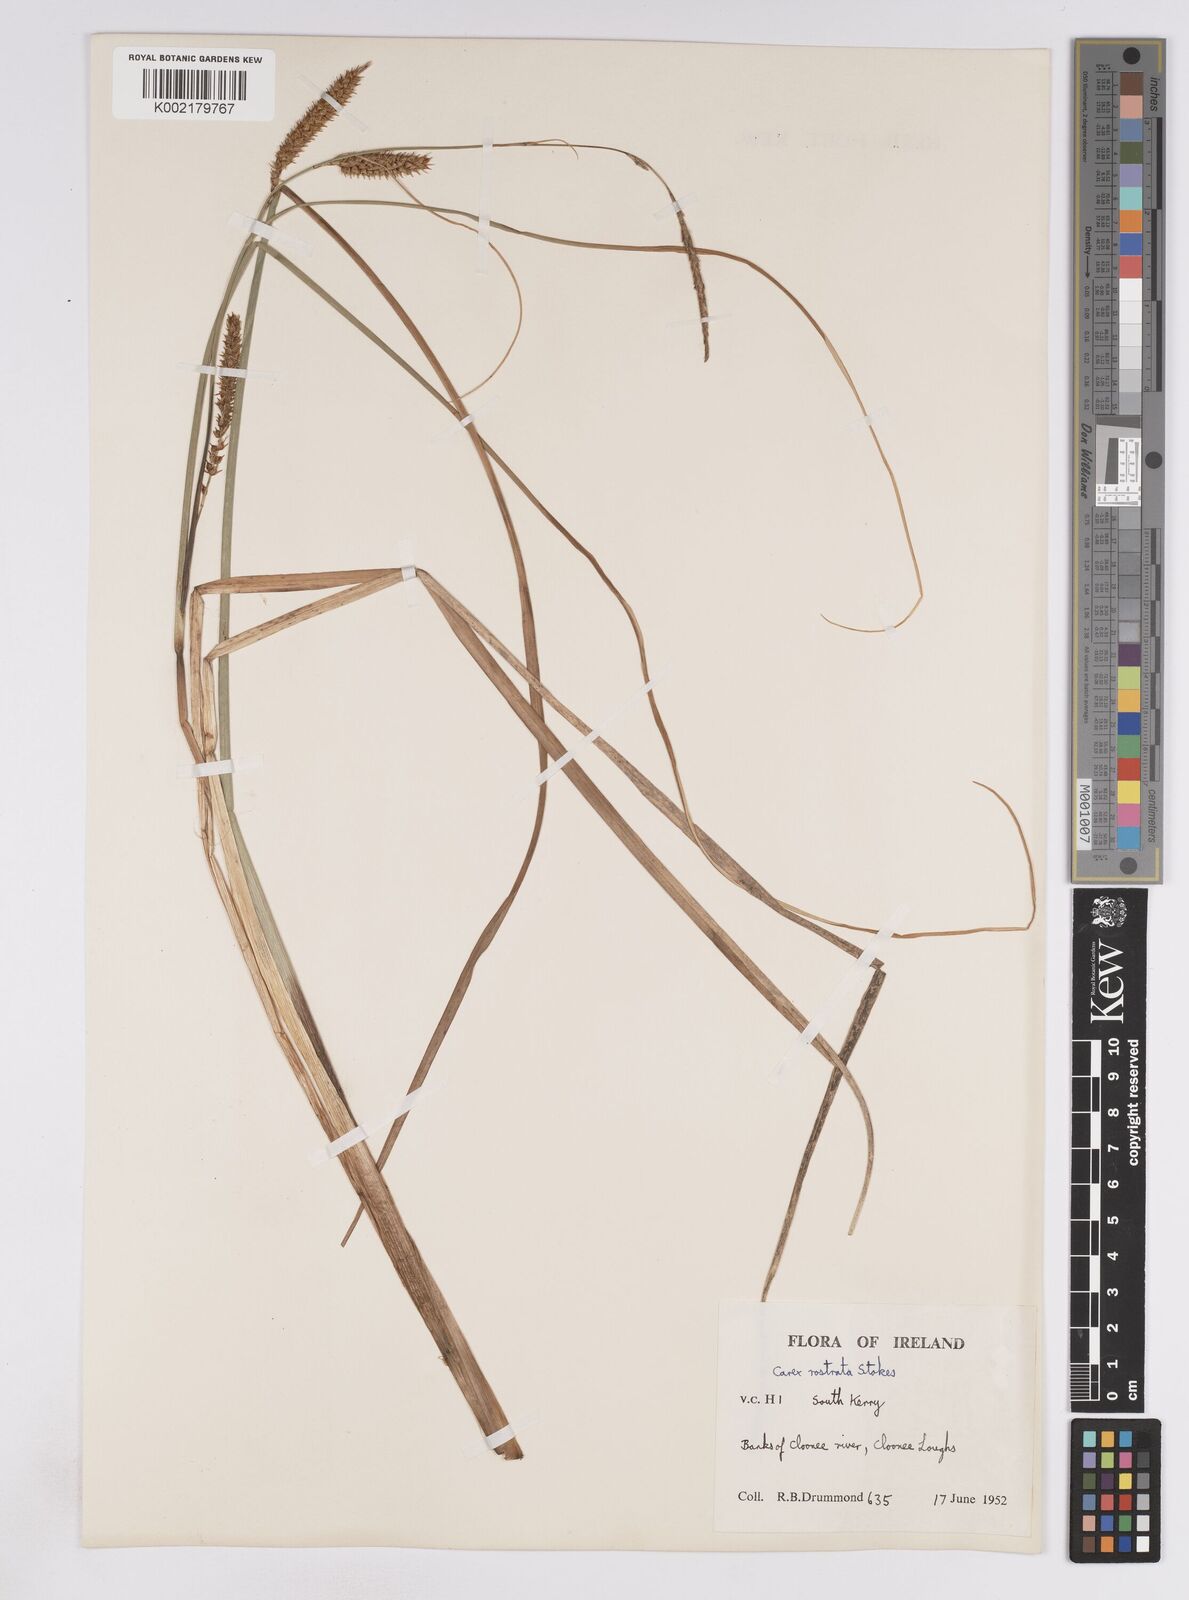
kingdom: Plantae
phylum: Tracheophyta
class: Liliopsida
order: Poales
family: Cyperaceae
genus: Carex
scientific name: Carex rostrata
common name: Bottle sedge
